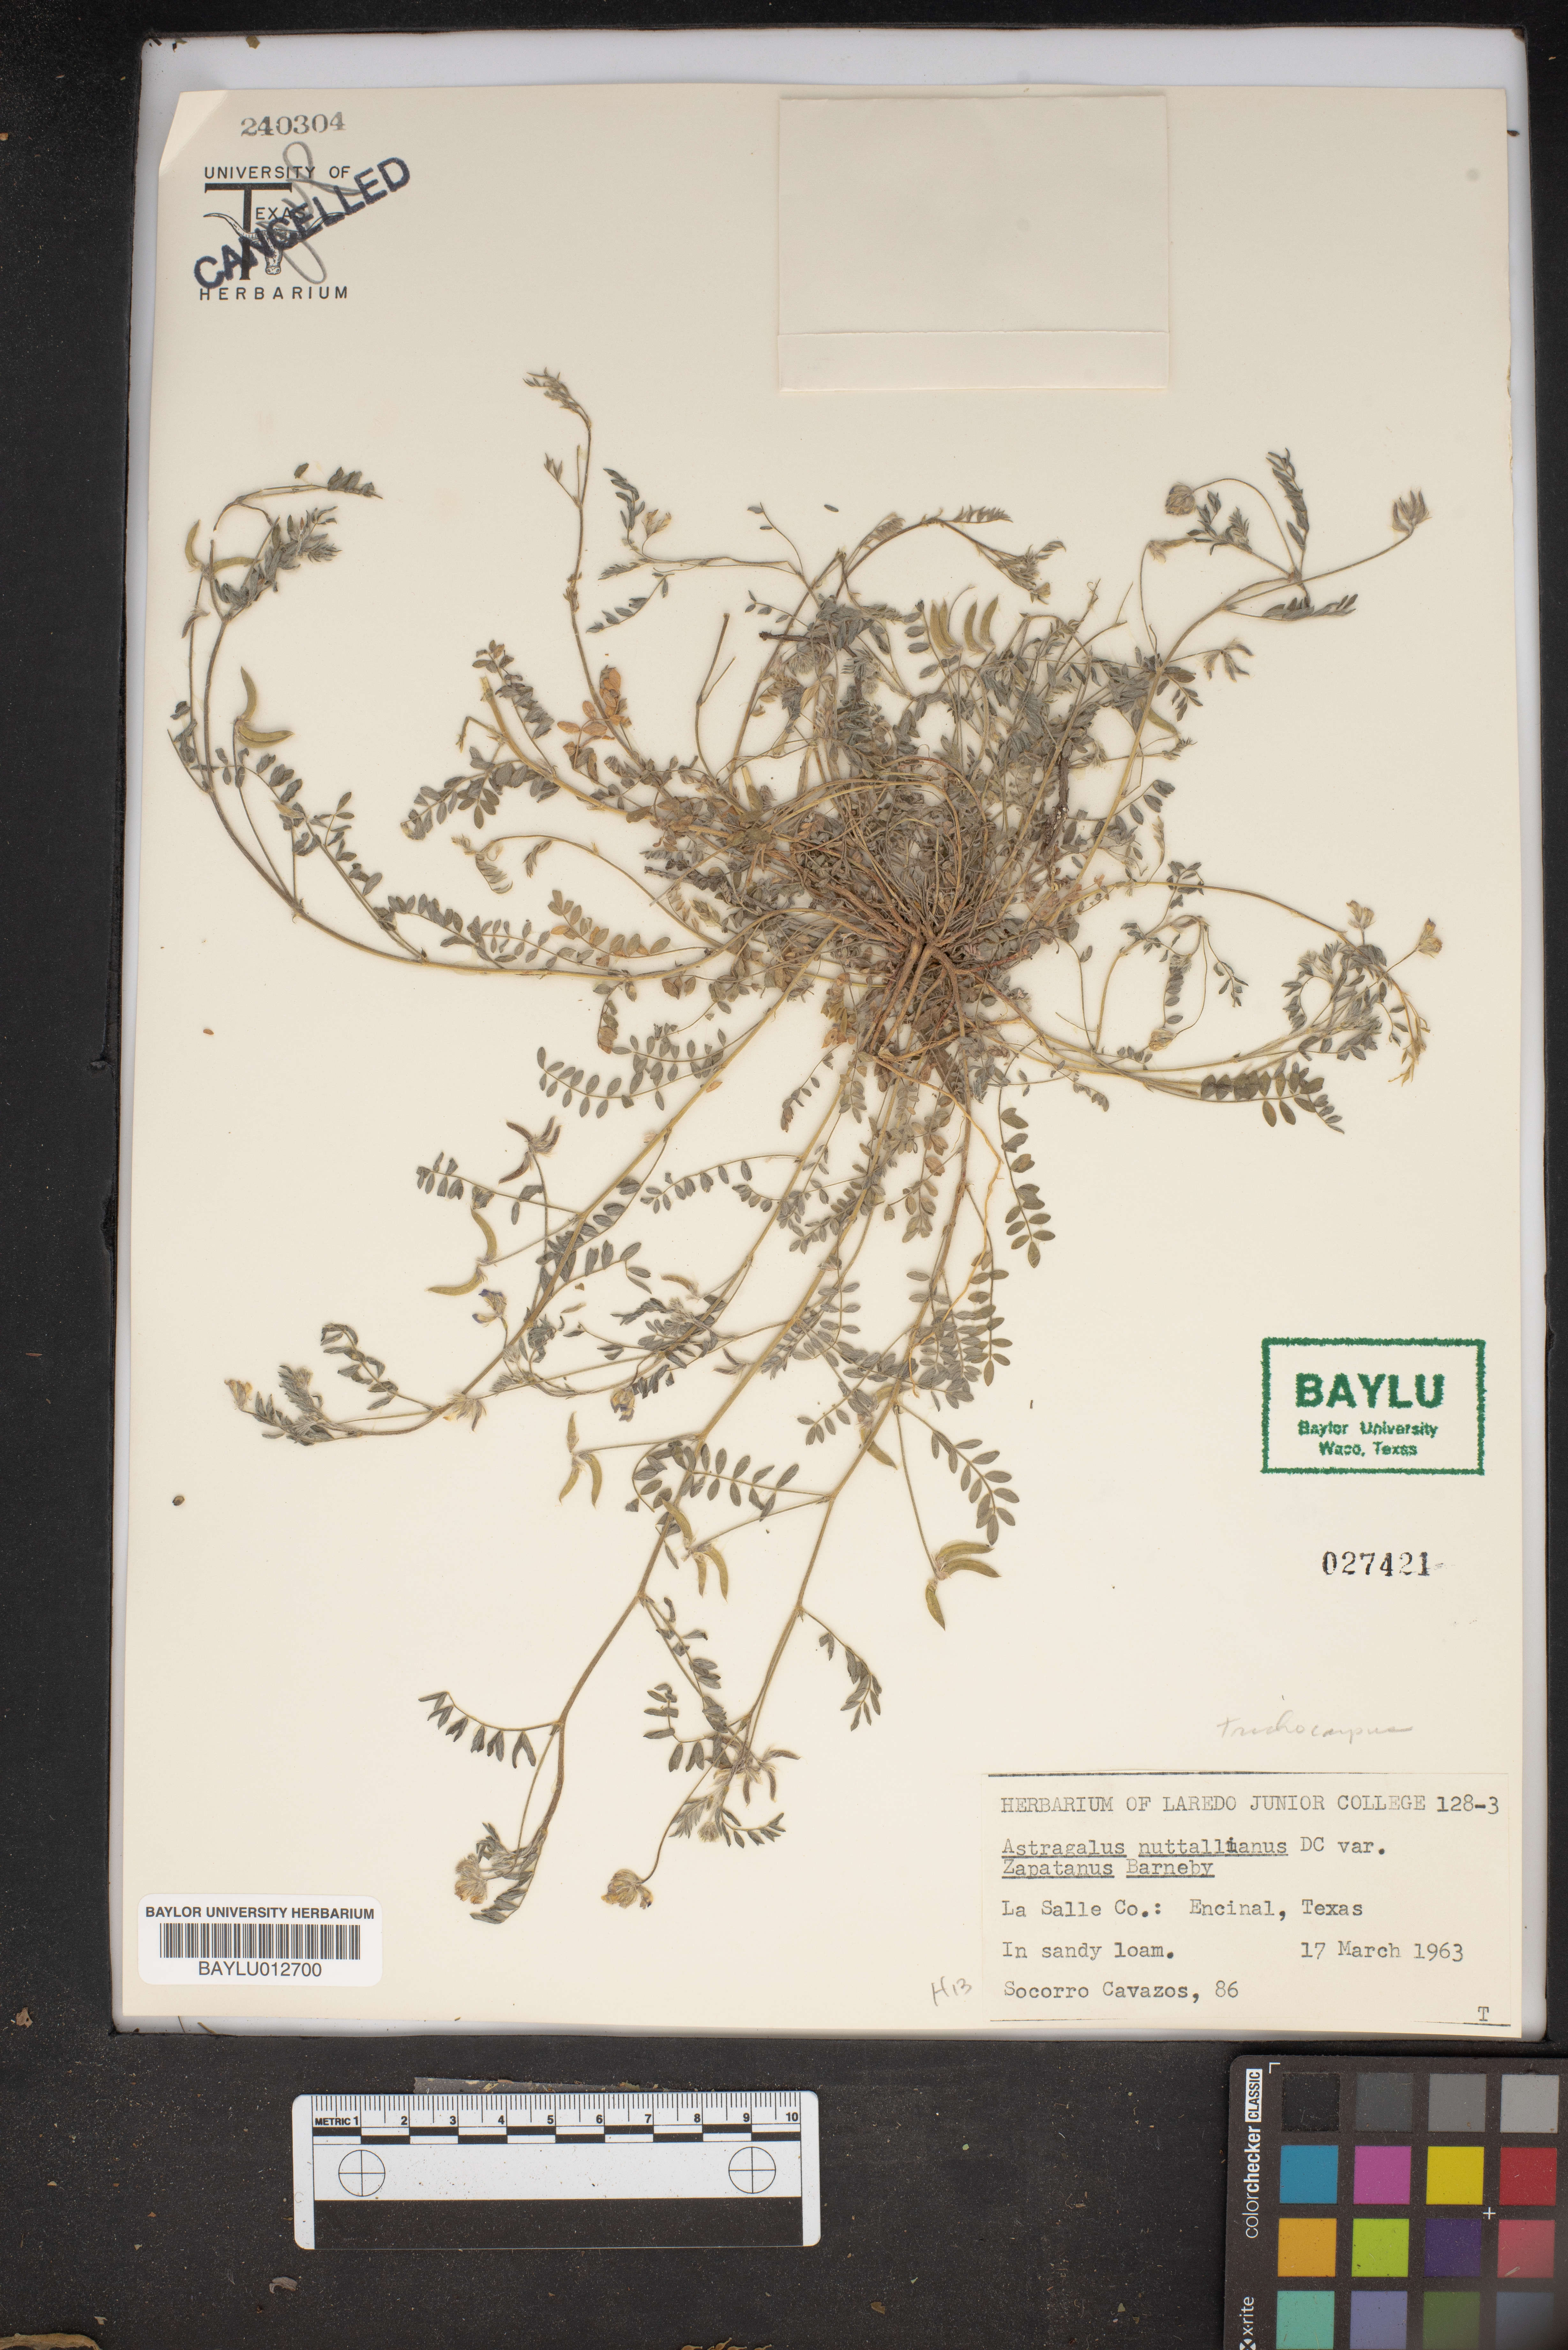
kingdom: Plantae
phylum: Tracheophyta
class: Magnoliopsida
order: Fabales
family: Fabaceae
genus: Astragalus
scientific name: Astragalus nuttallianus
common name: Smallflowered milkvetch
